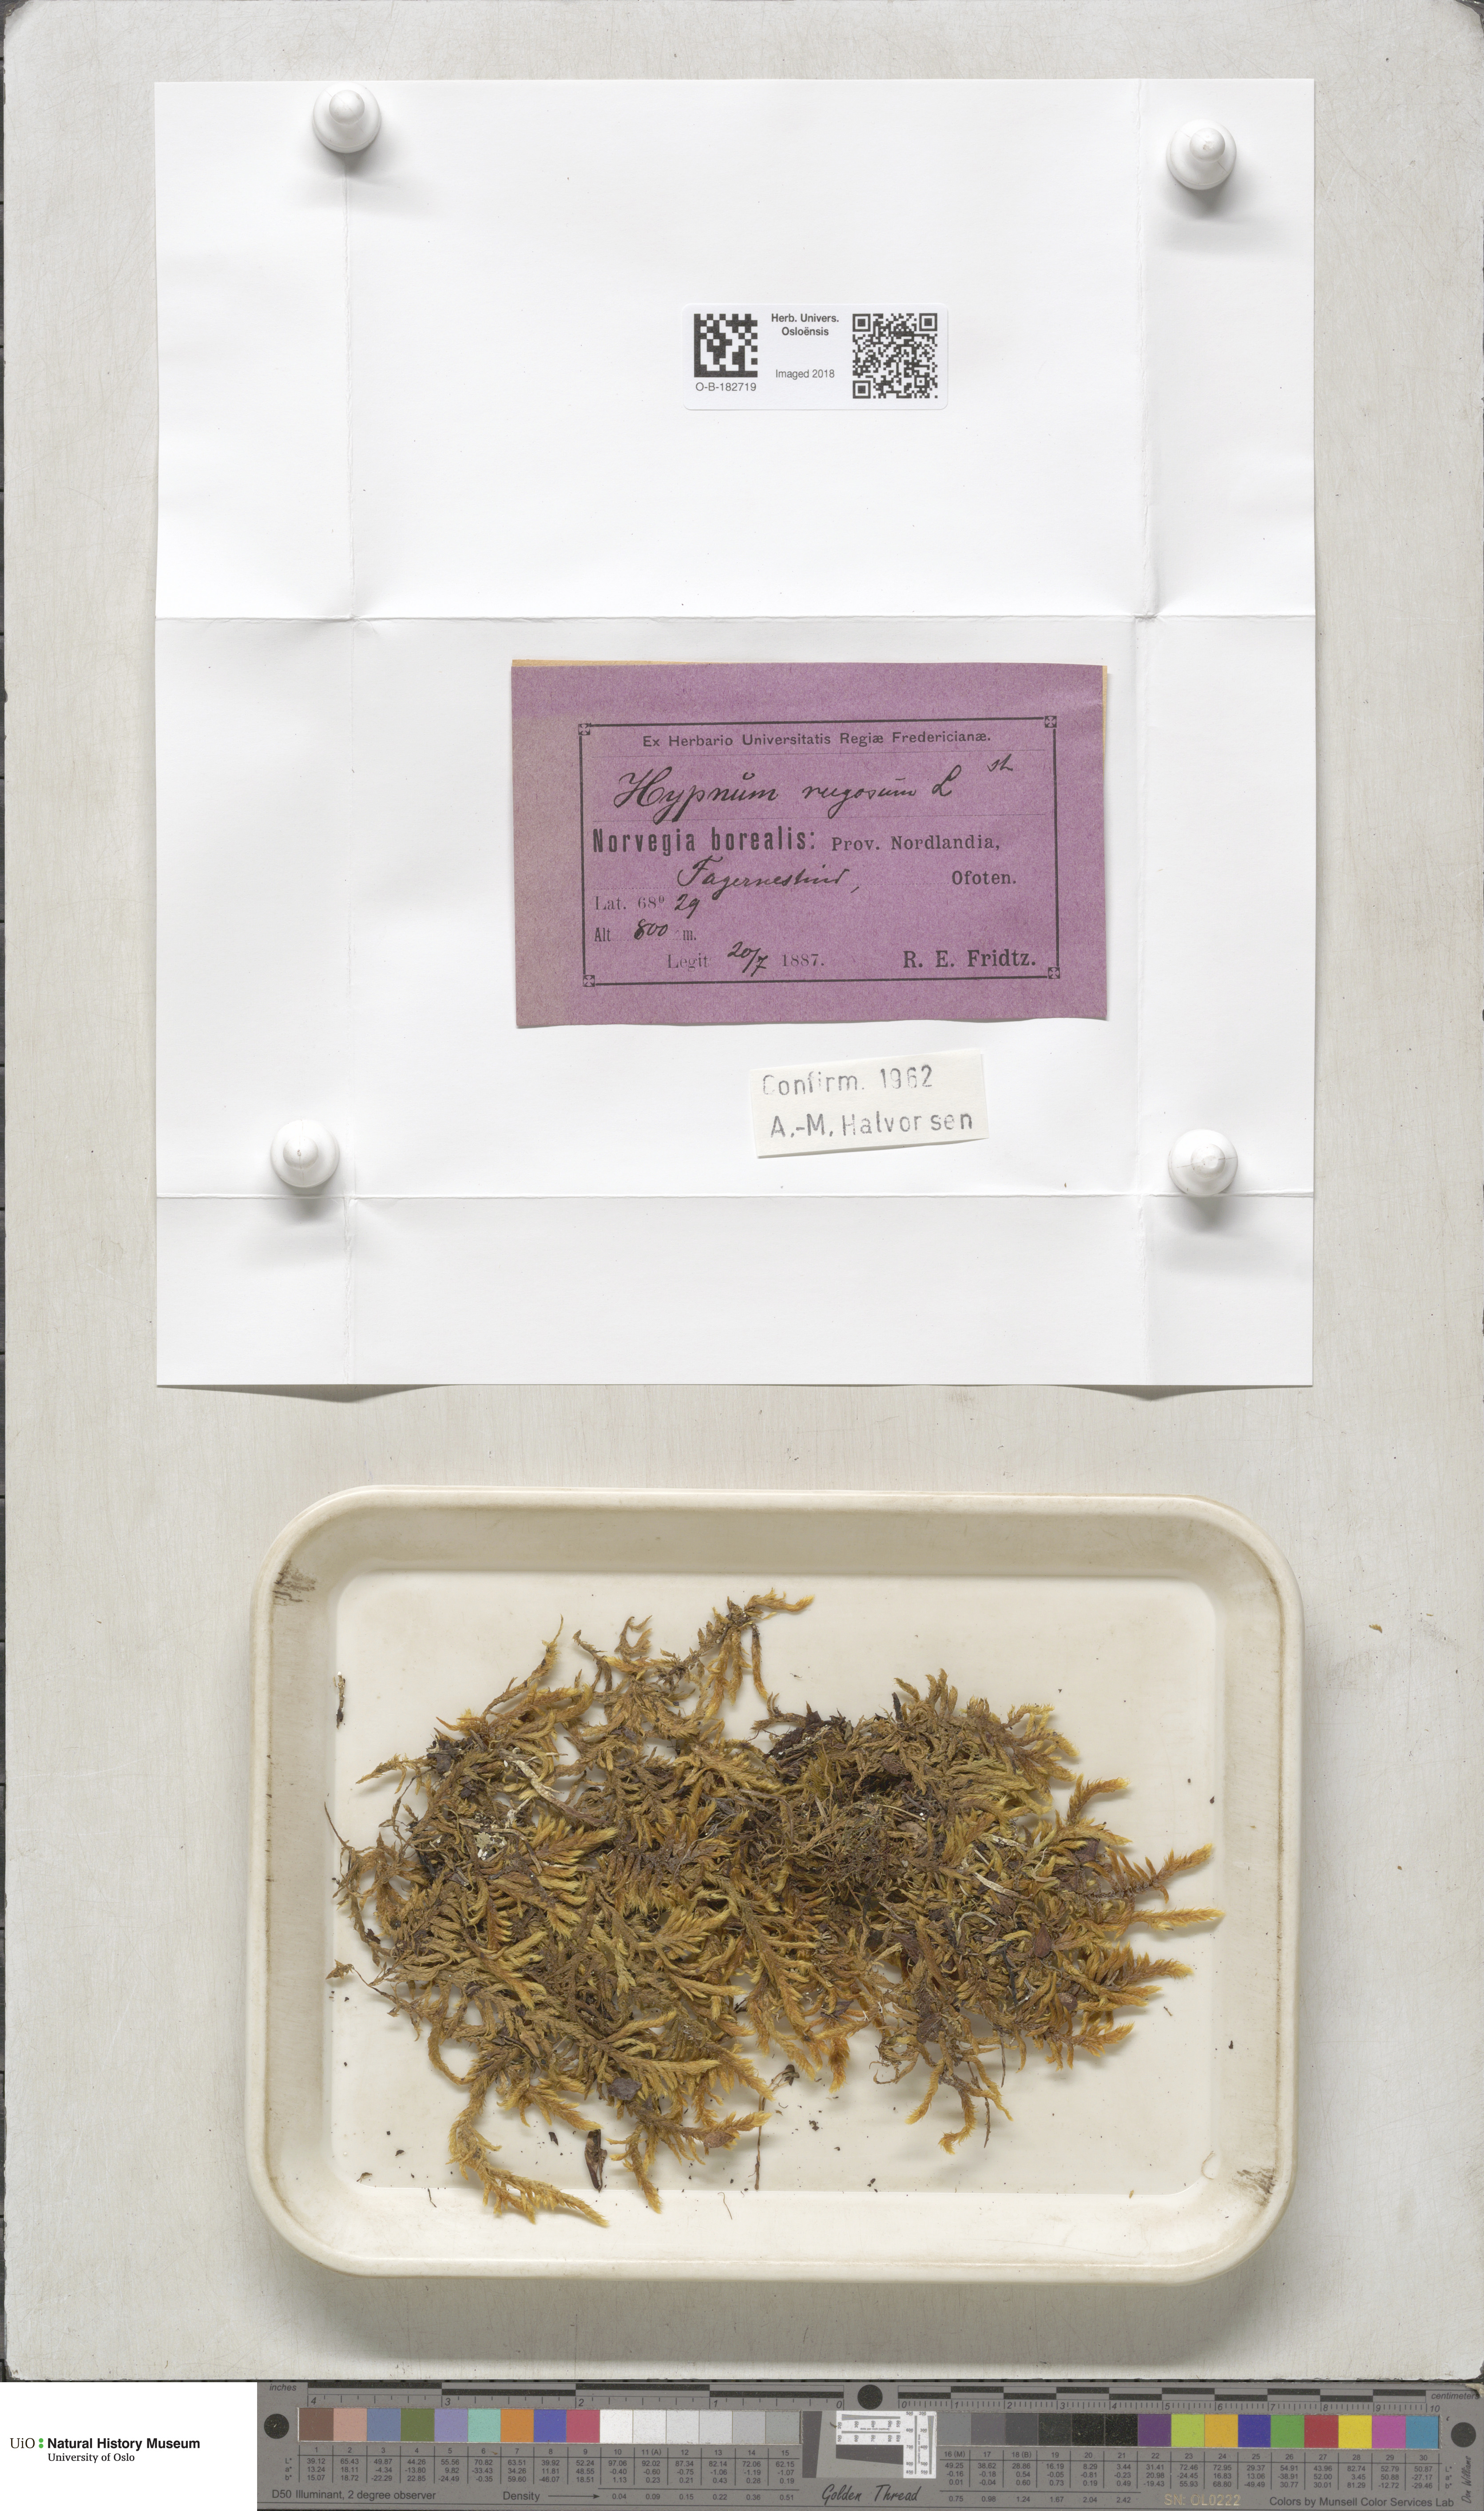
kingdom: Plantae
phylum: Bryophyta
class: Bryopsida
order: Hypnales
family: Rhytidiaceae
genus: Rhytidium
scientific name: Rhytidium rugosum
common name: Wrinkle-leaved moss
